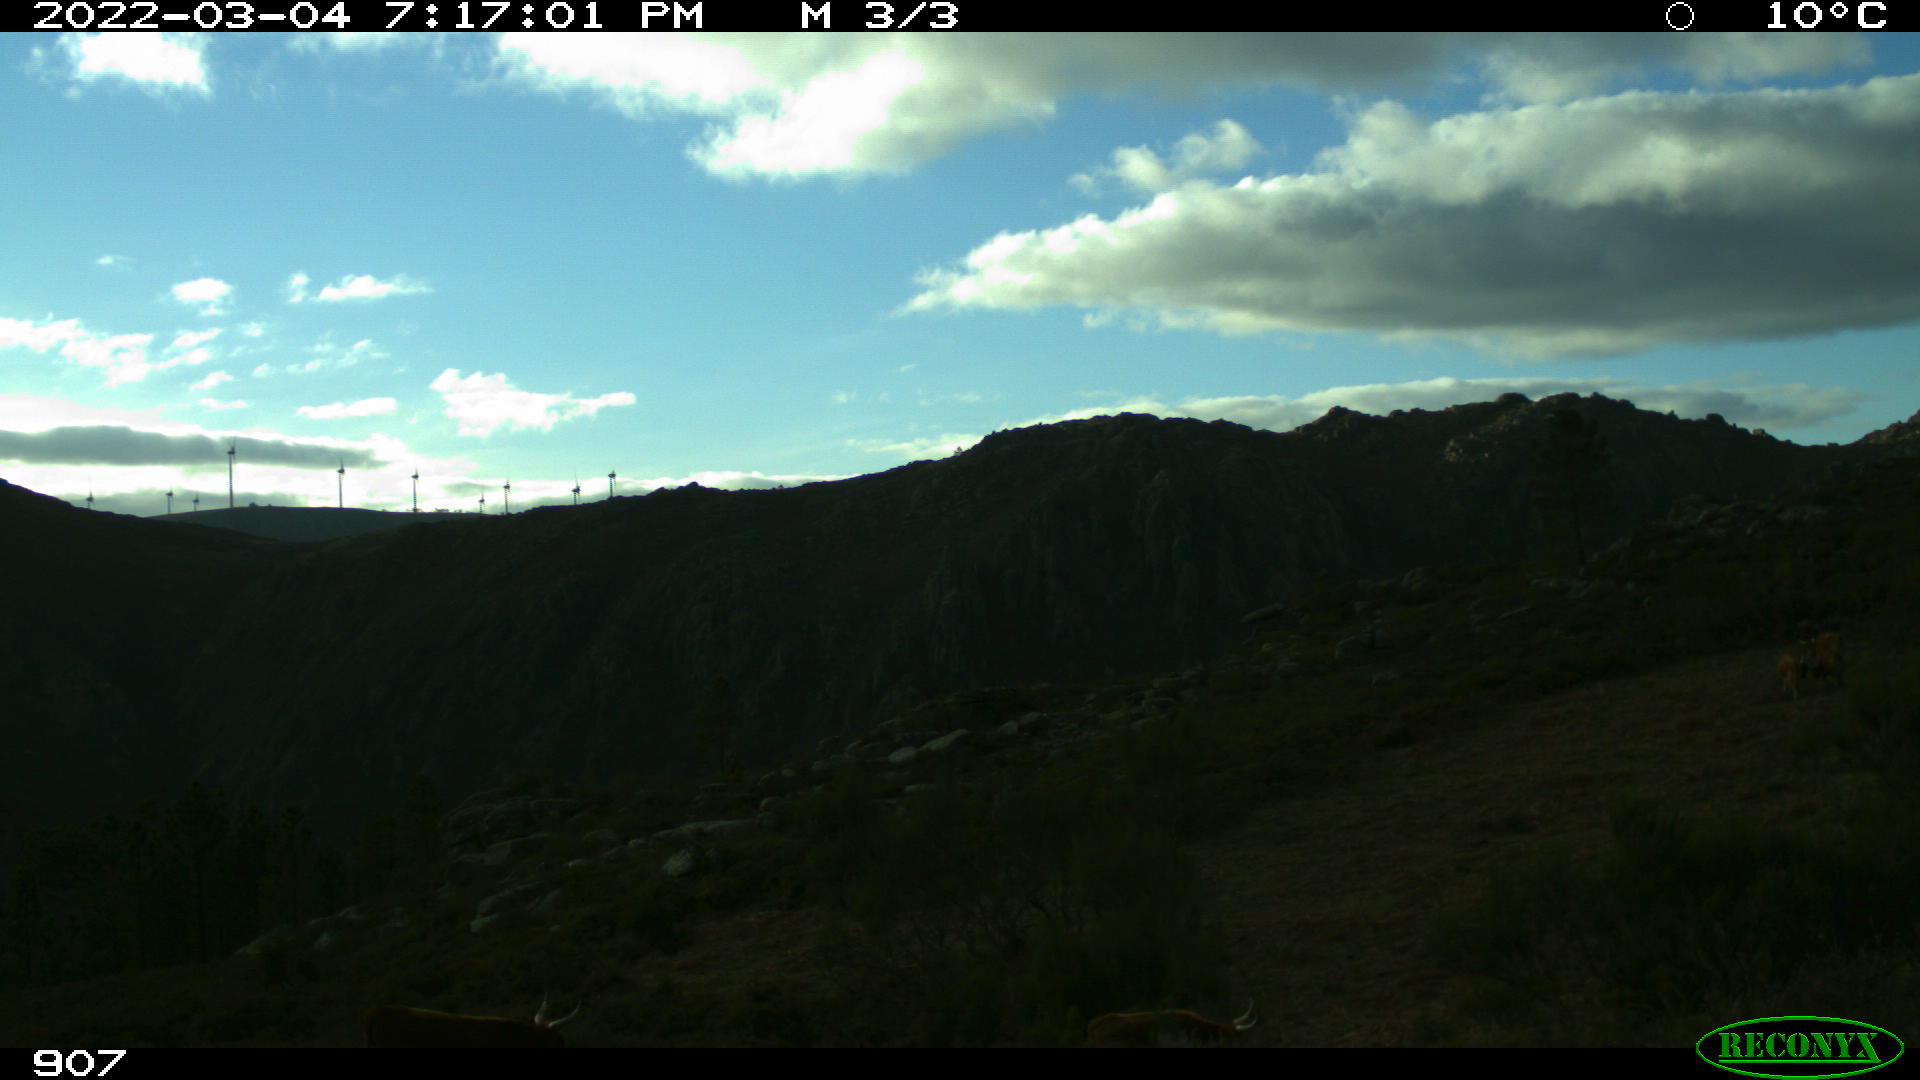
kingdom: Animalia
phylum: Chordata
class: Mammalia
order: Artiodactyla
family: Bovidae
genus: Bos
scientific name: Bos taurus
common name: Domesticated cattle
